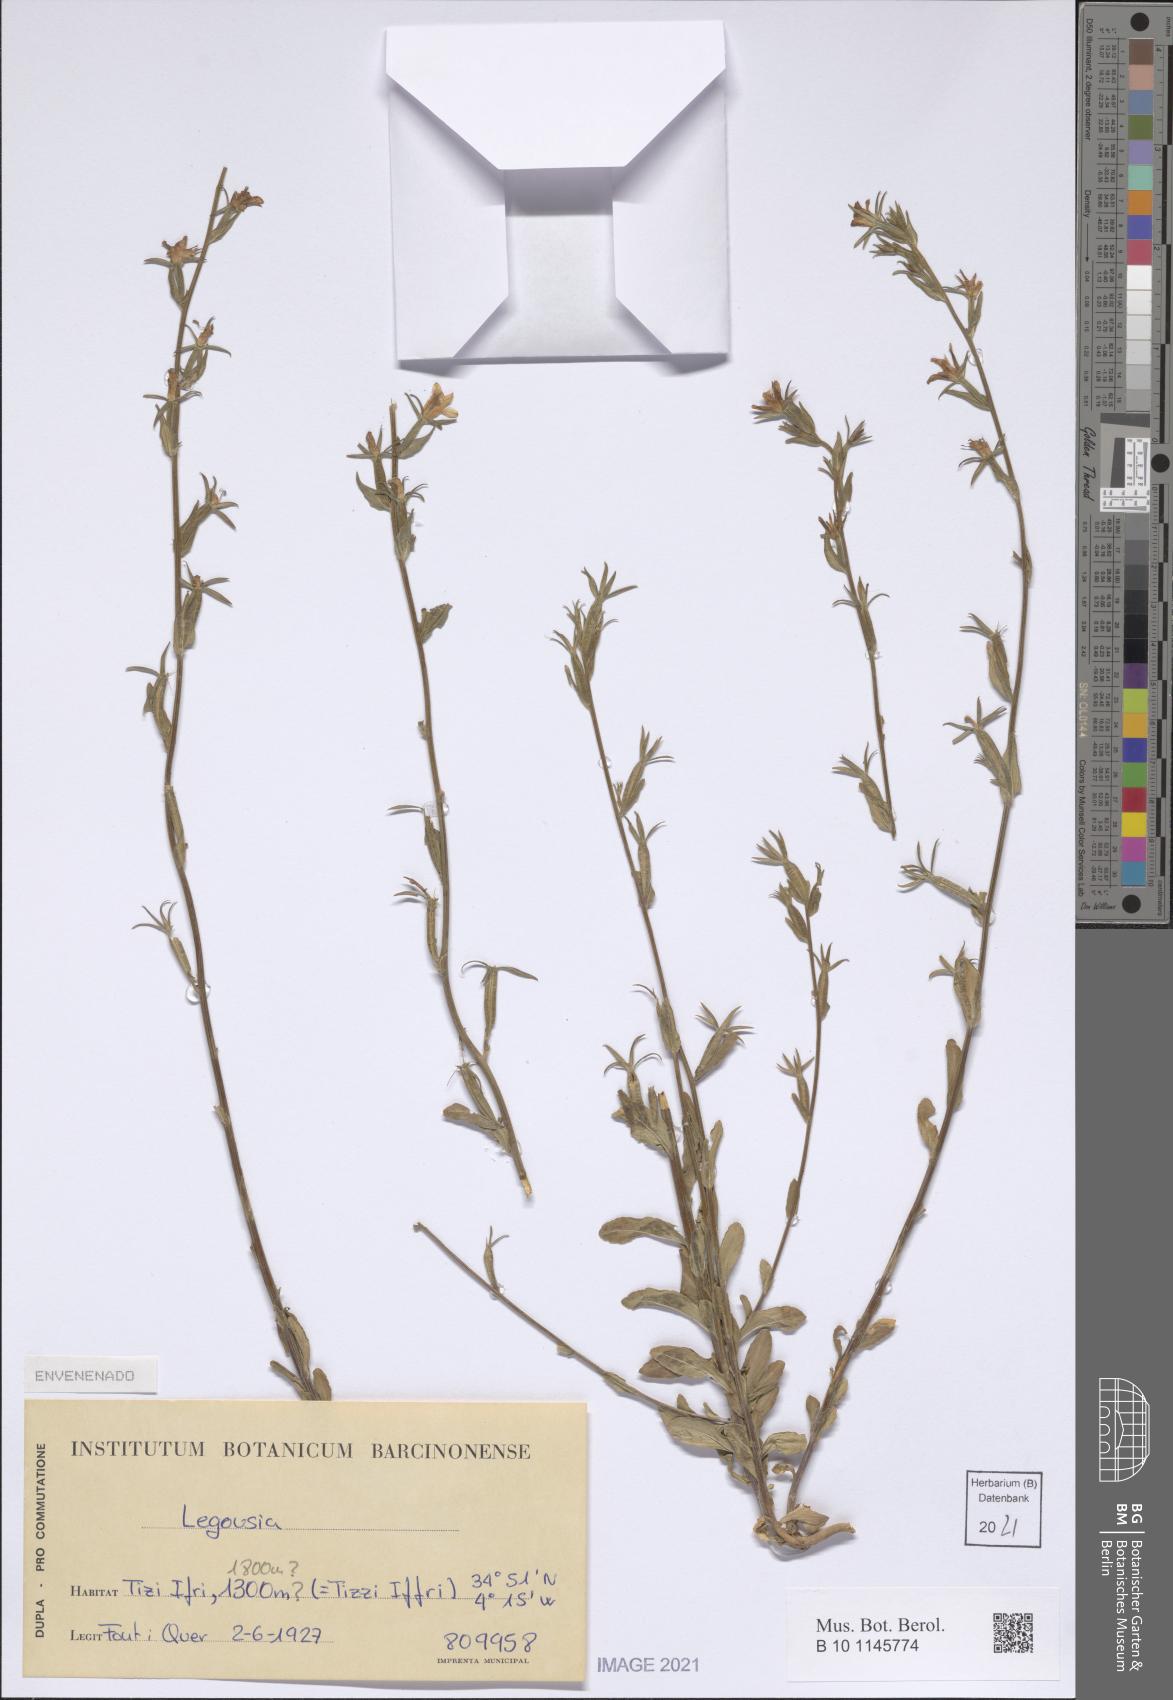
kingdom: Plantae
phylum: Tracheophyta
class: Magnoliopsida
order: Asterales
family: Campanulaceae
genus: Legousia
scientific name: Legousia
